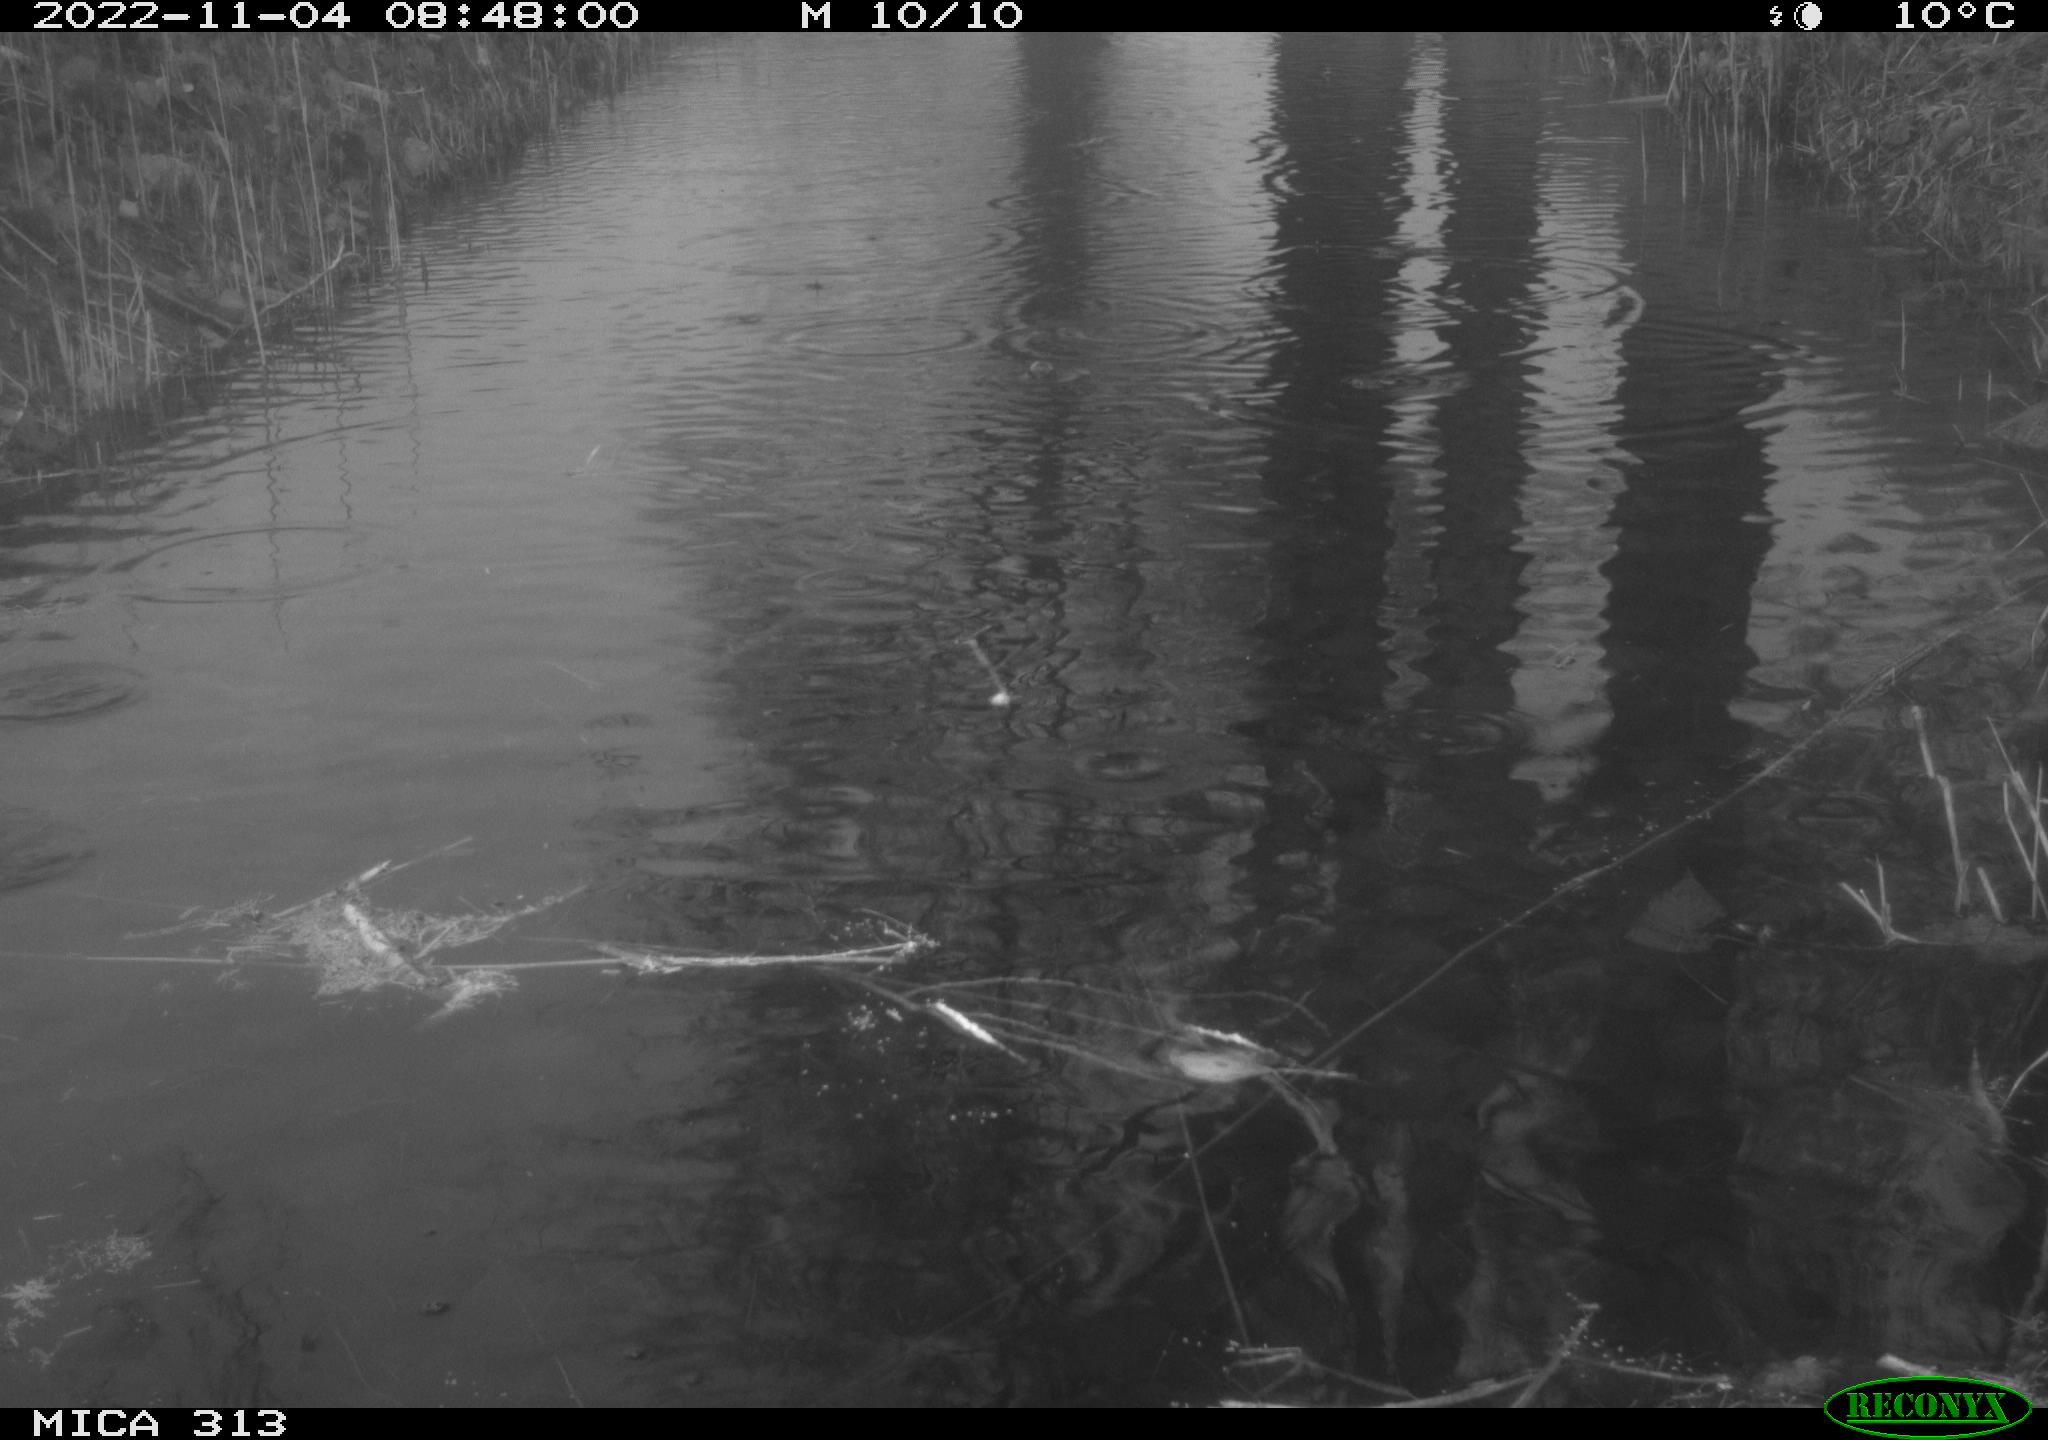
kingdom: Animalia
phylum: Chordata
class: Aves
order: Gruiformes
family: Rallidae
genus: Gallinula
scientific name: Gallinula chloropus
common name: Common moorhen
